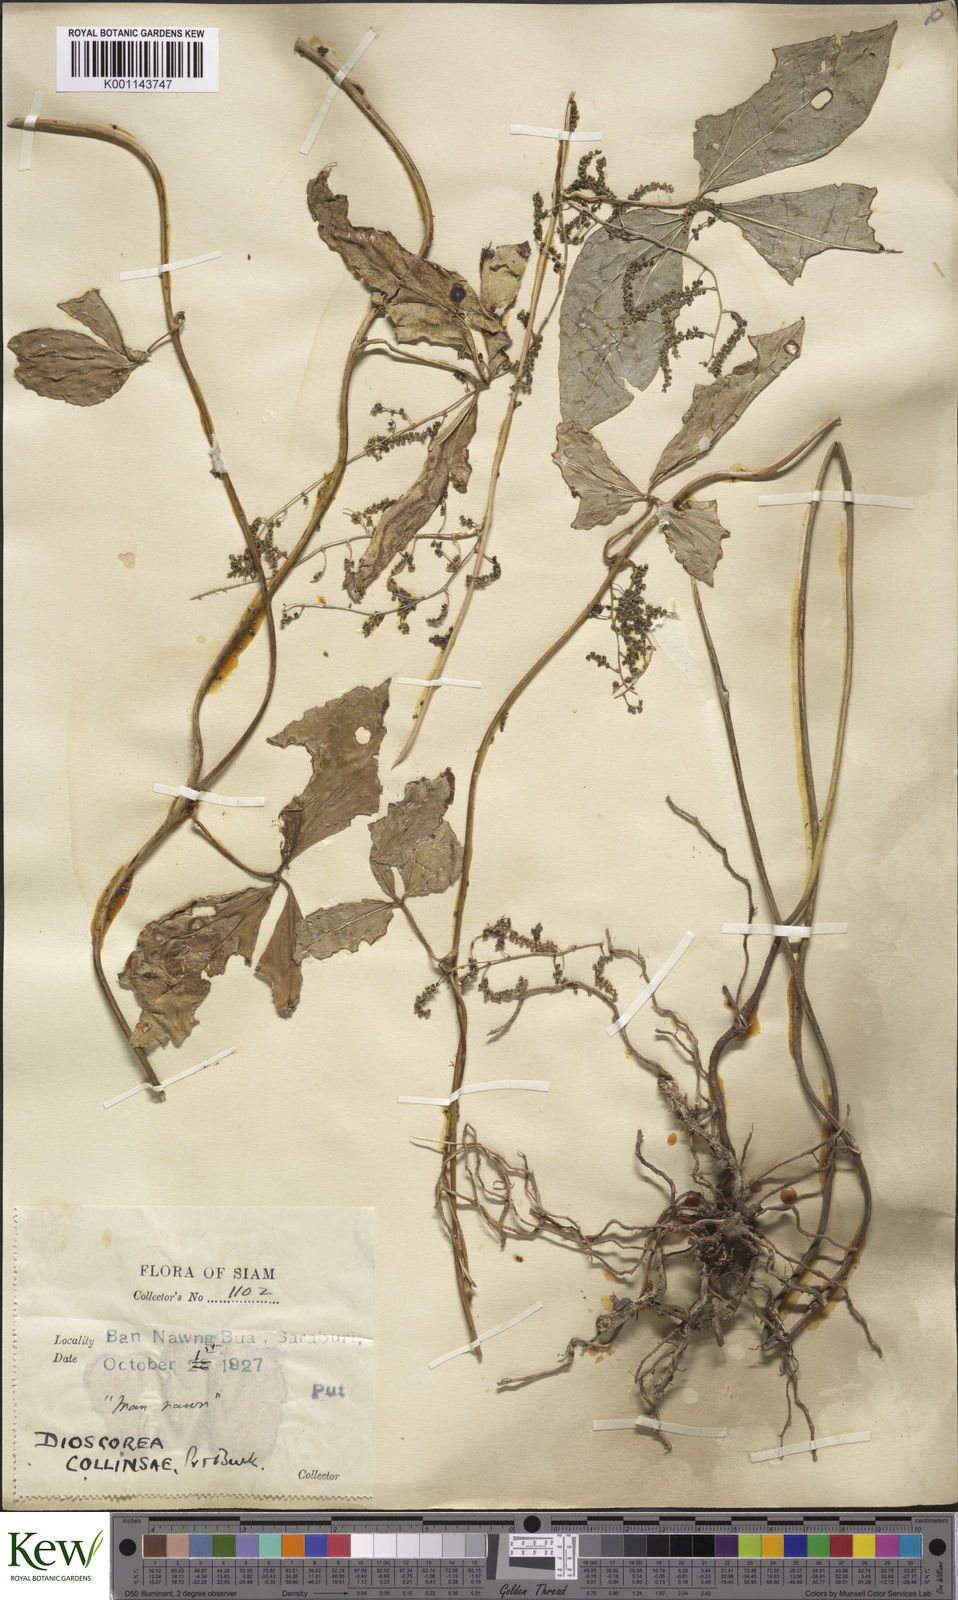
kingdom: Plantae
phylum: Tracheophyta
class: Liliopsida
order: Dioscoreales
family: Dioscoreaceae
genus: Dioscorea
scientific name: Dioscorea arachidna
